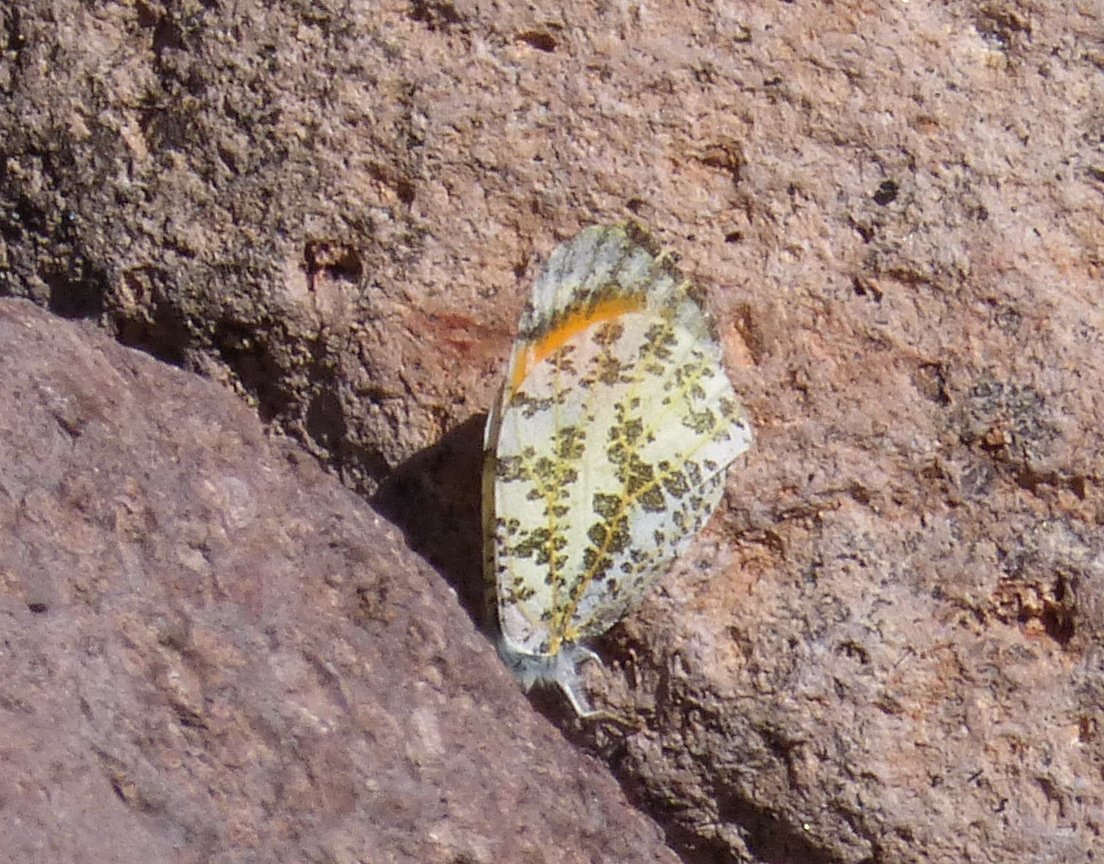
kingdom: Animalia
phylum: Arthropoda
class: Insecta
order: Lepidoptera
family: Pieridae
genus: Anthocharis
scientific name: Anthocharis cethura
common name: Desert Orangetip
